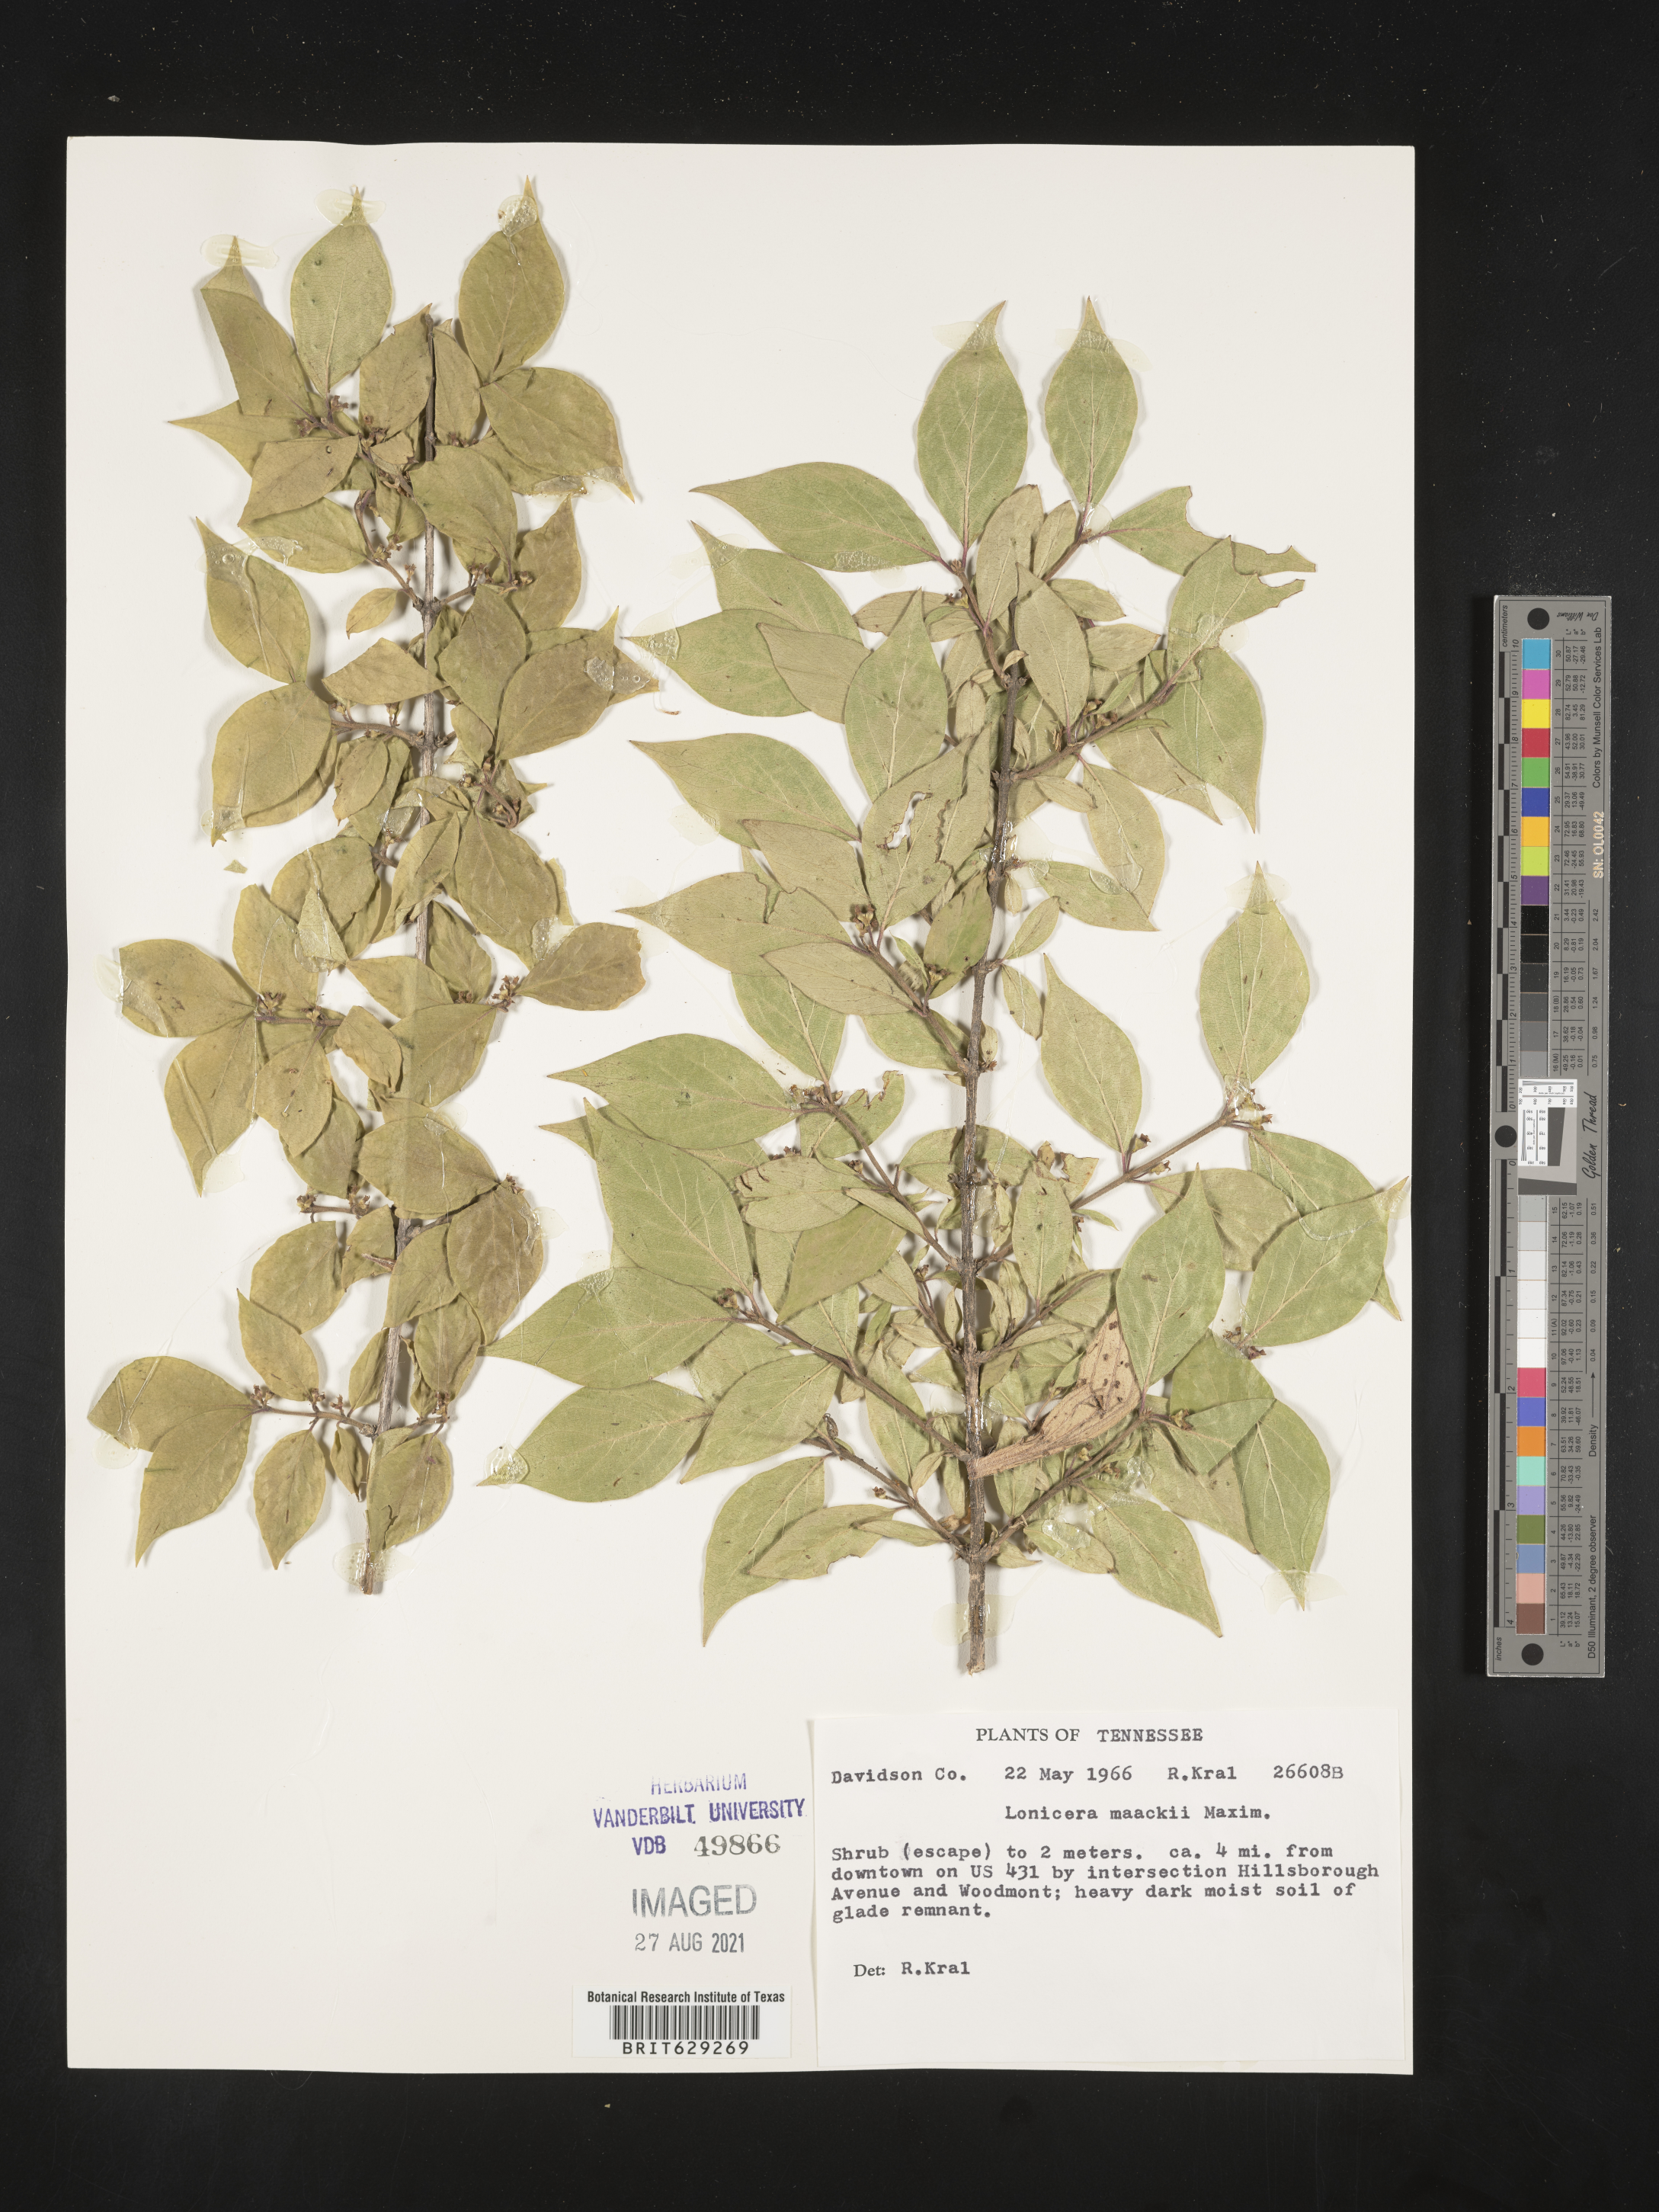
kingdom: Plantae
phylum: Tracheophyta
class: Magnoliopsida
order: Dipsacales
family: Caprifoliaceae
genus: Lonicera
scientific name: Lonicera maackii
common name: Amur honeysuckle
